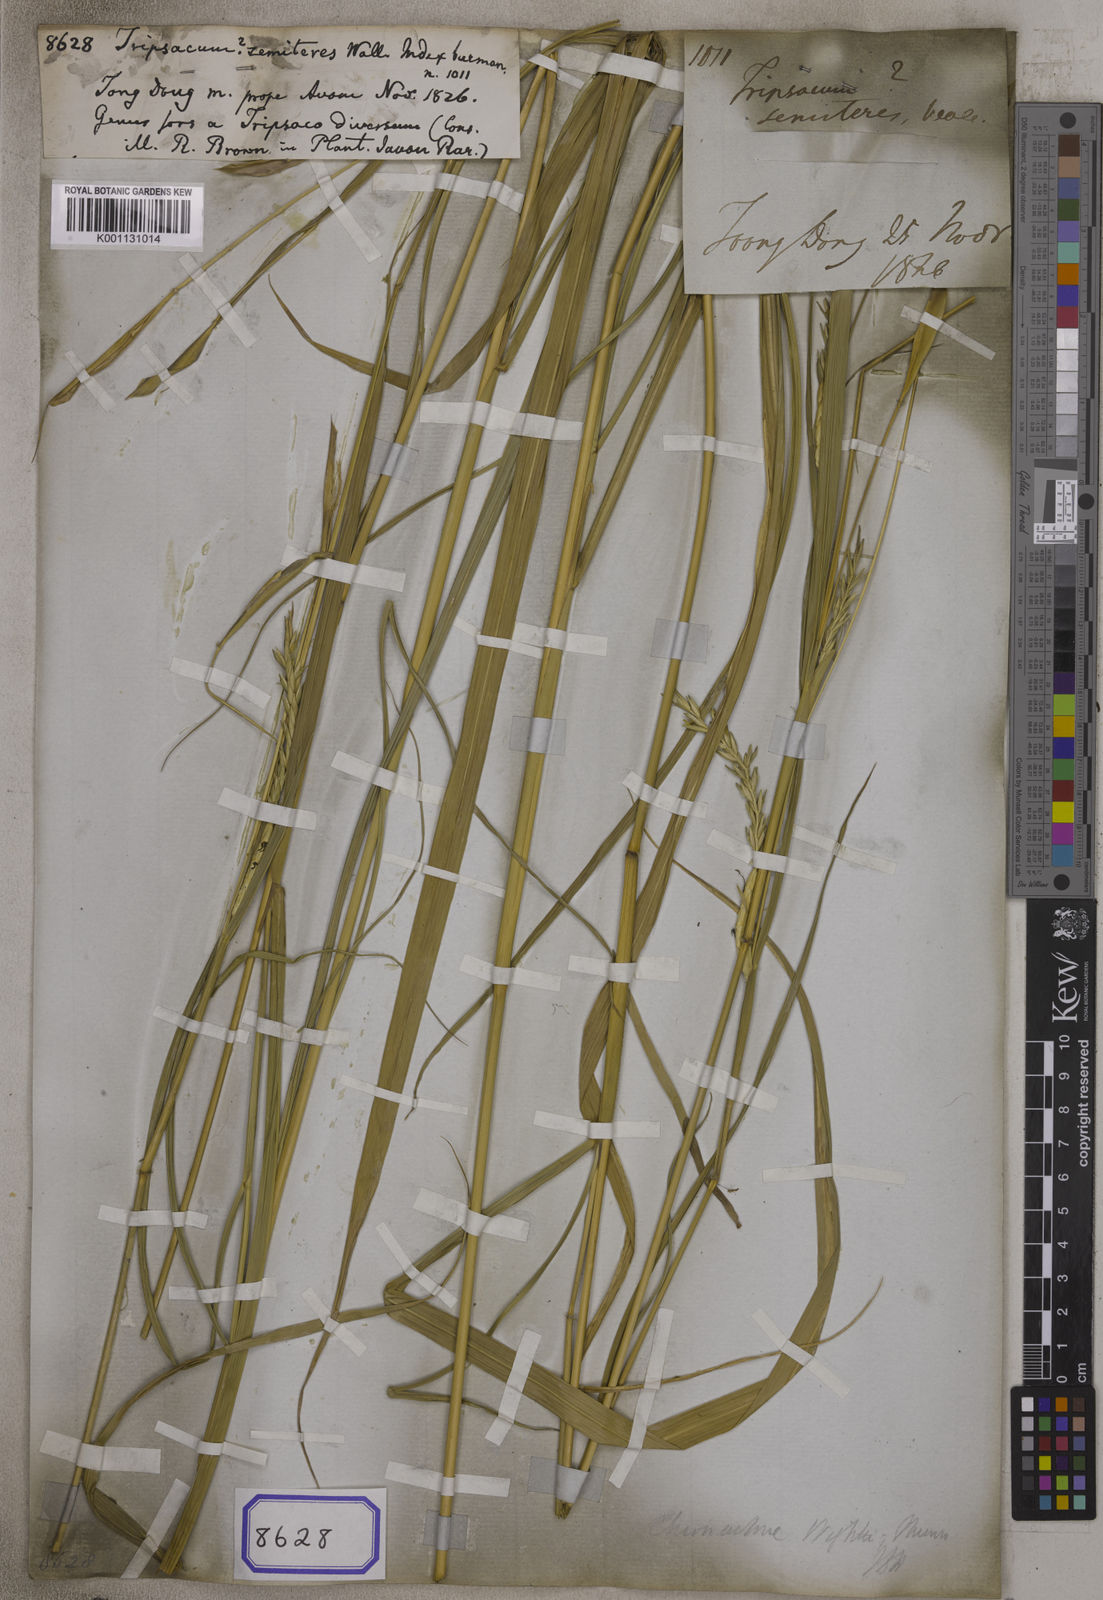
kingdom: Plantae
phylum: Tracheophyta
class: Liliopsida
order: Poales
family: Poaceae
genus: Polytoca
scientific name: Polytoca semiteres
